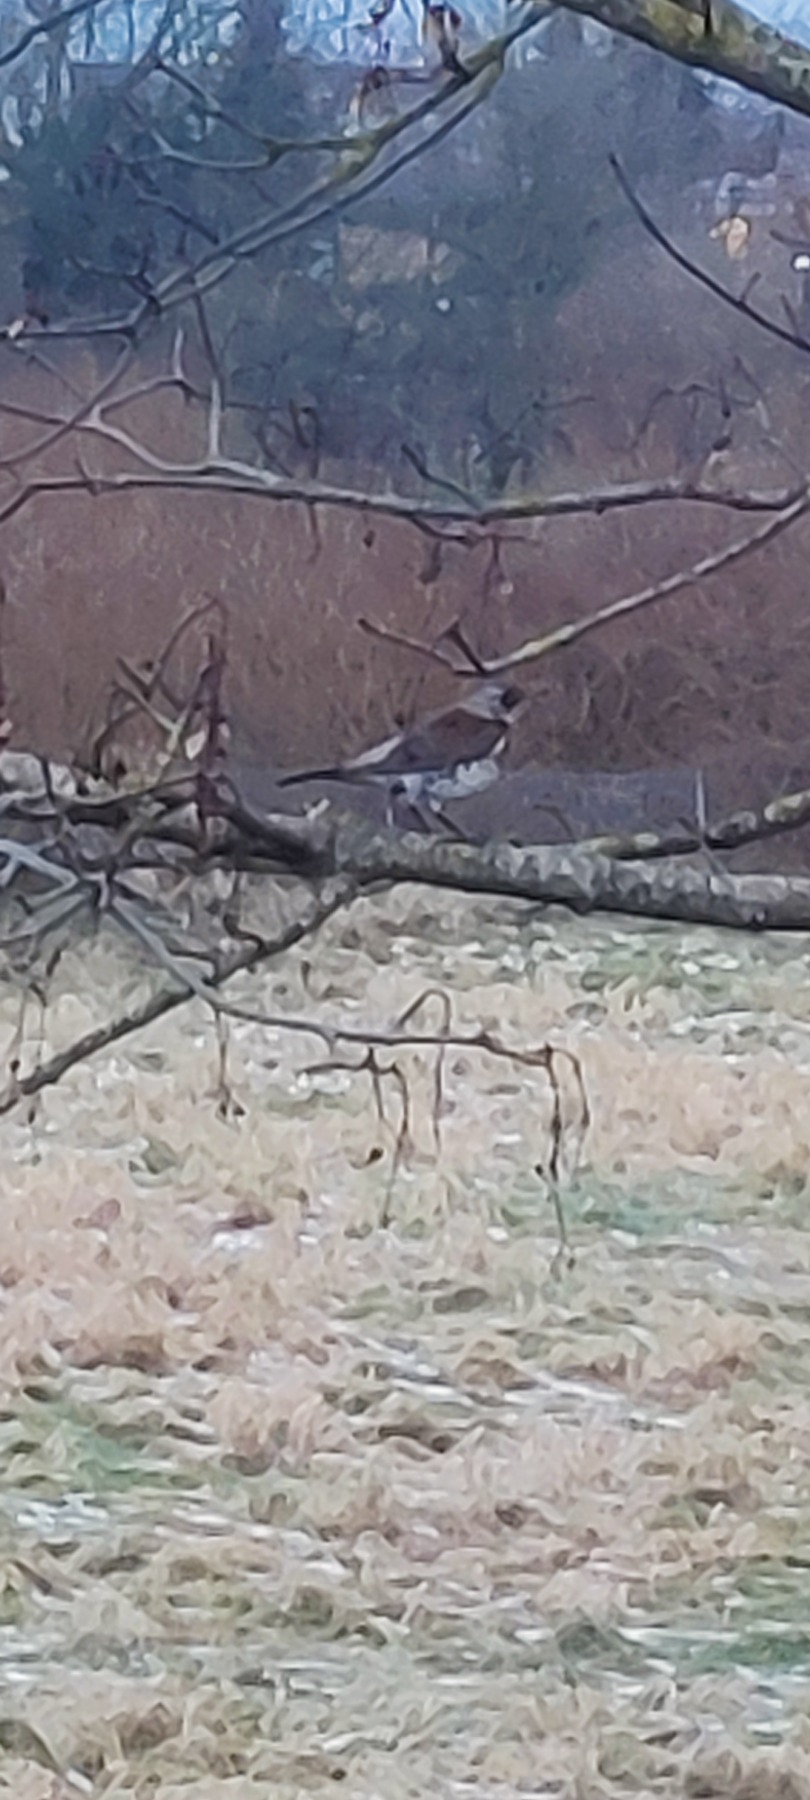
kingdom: Animalia
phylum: Chordata
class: Aves
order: Passeriformes
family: Turdidae
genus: Turdus
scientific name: Turdus pilaris
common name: Sjagger
